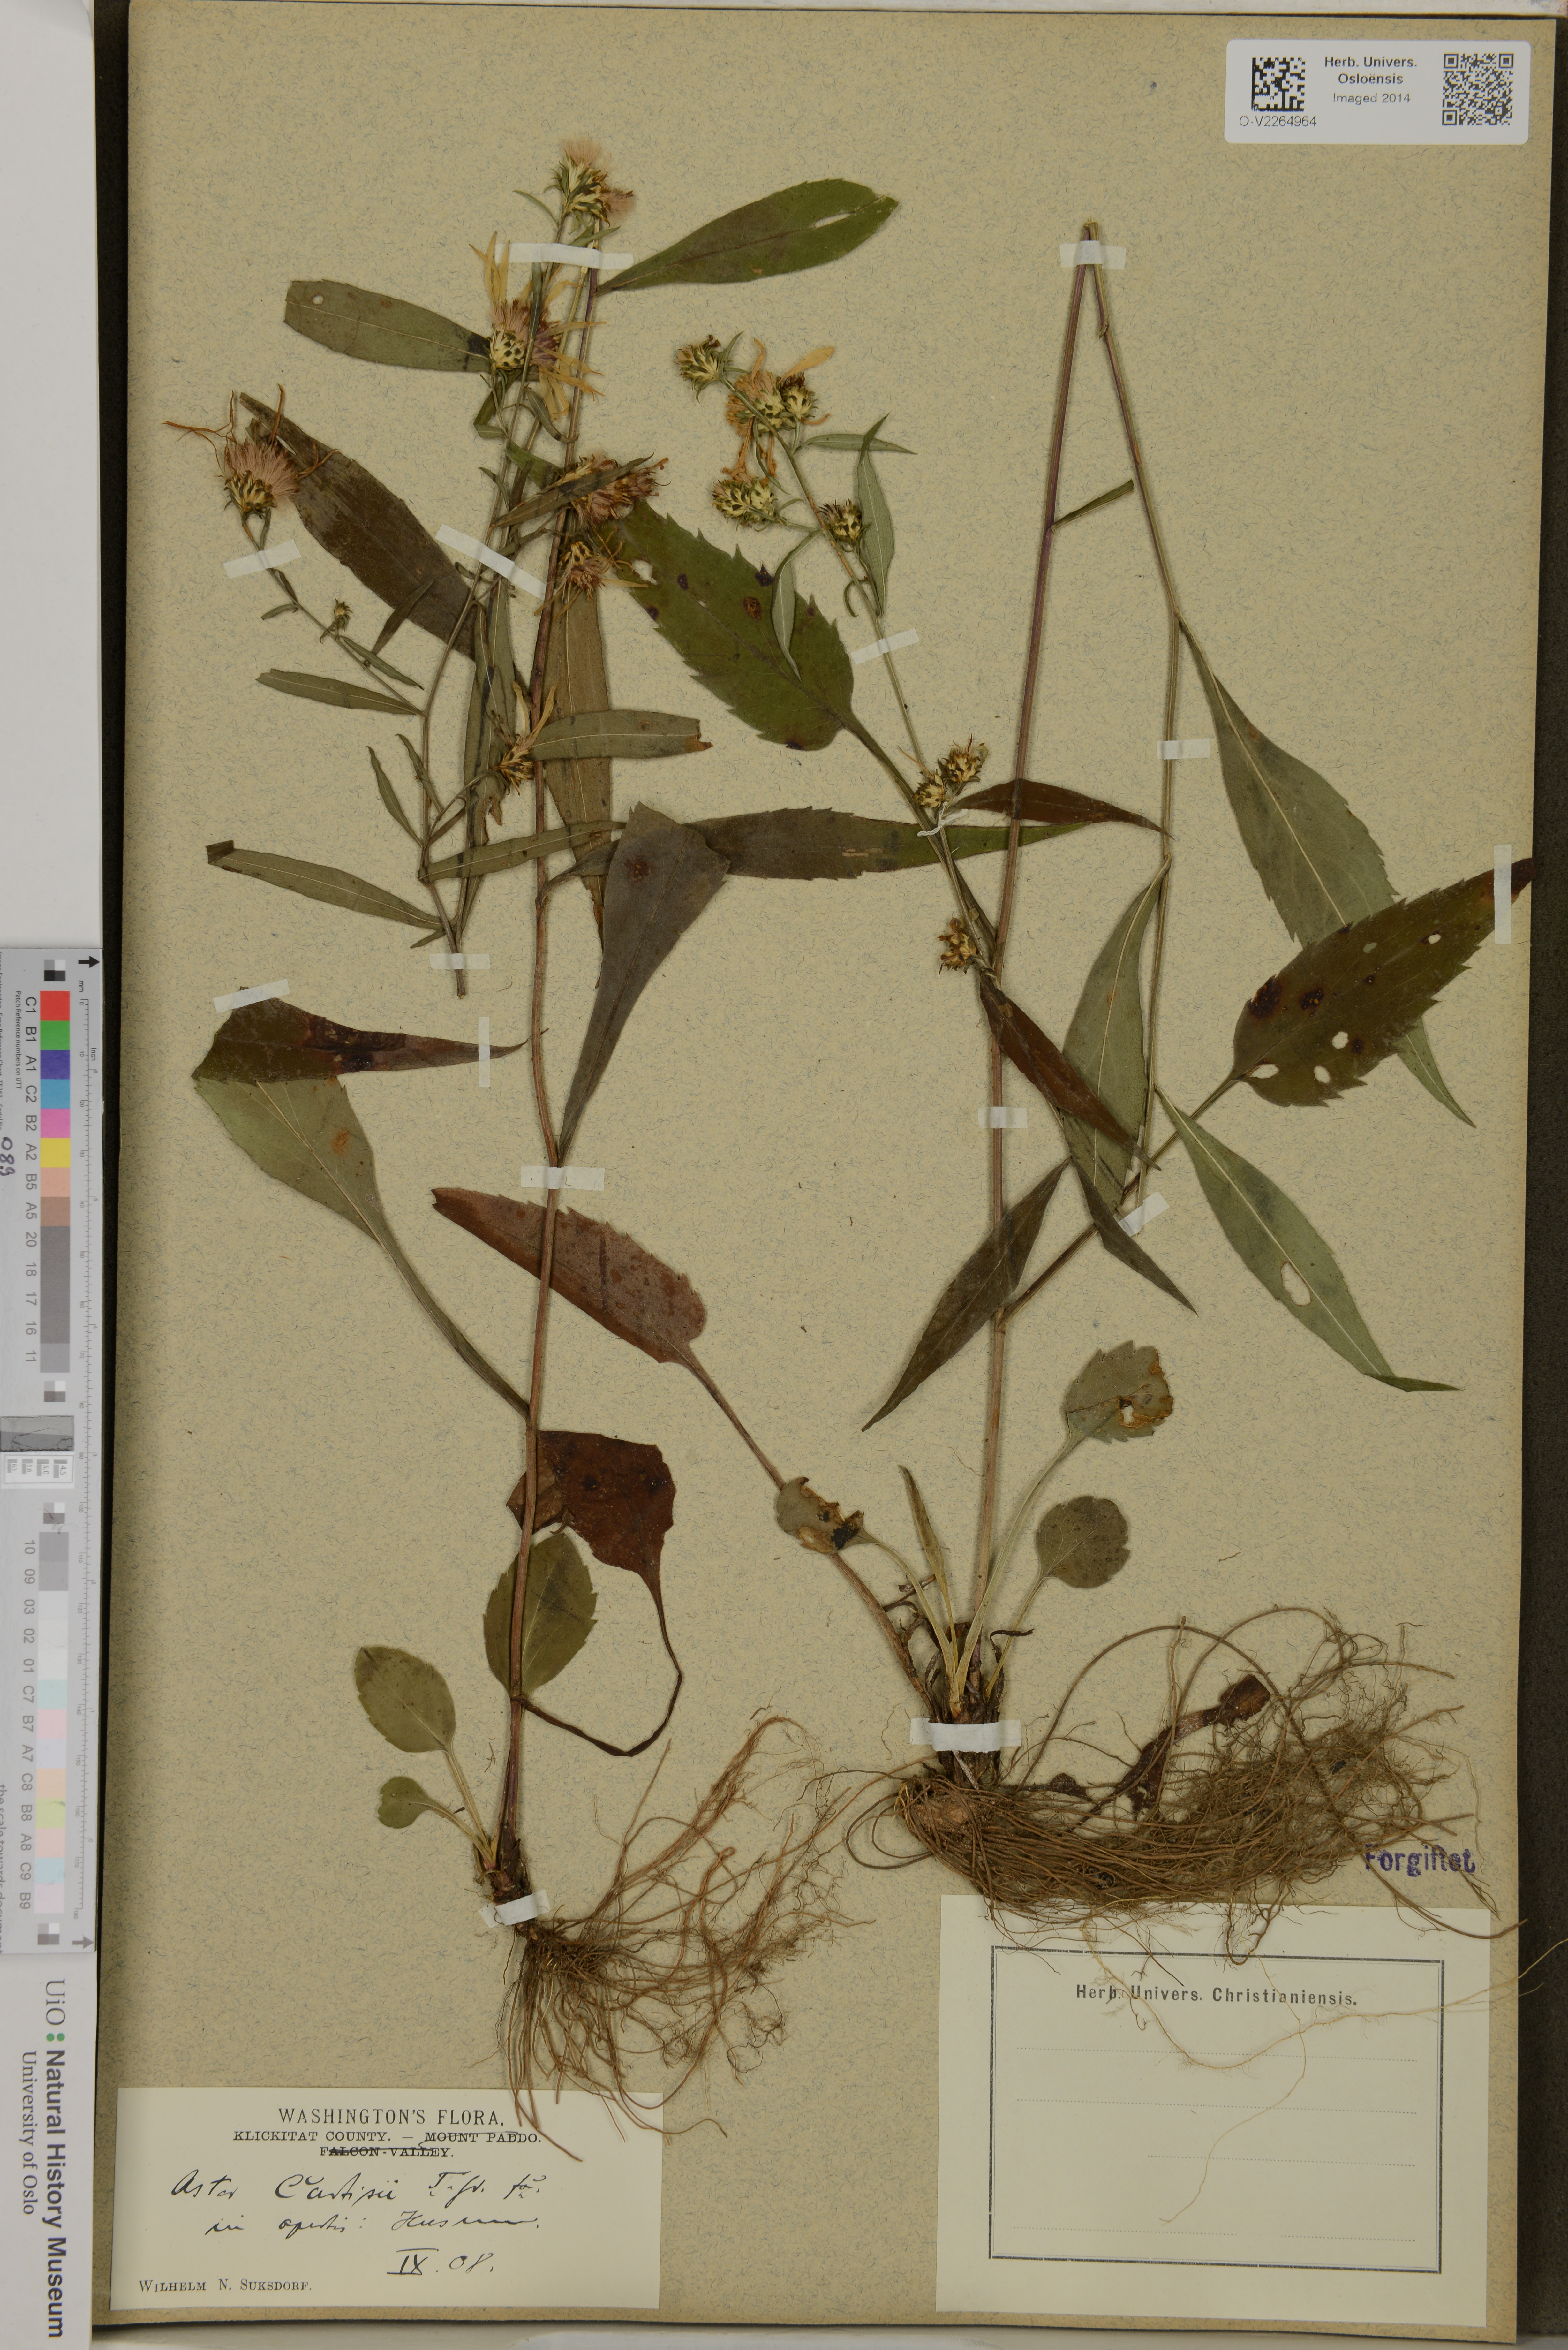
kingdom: Plantae
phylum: Tracheophyta
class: Magnoliopsida
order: Asterales
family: Asteraceae
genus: Symphyotrichum
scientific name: Symphyotrichum retroflexum
